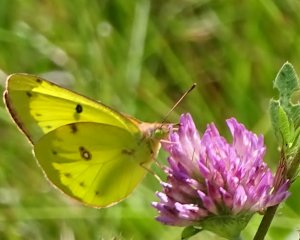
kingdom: Animalia
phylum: Arthropoda
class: Insecta
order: Lepidoptera
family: Pieridae
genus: Colias
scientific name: Colias philodice
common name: Clouded Sulphur
